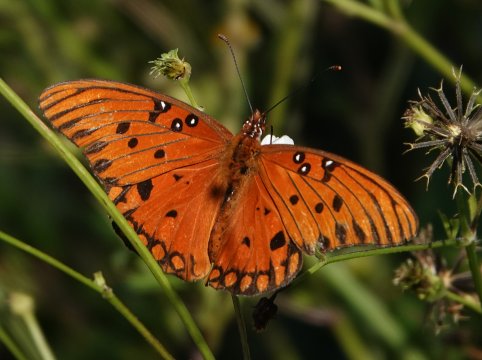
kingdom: Animalia
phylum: Arthropoda
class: Insecta
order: Lepidoptera
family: Nymphalidae
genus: Dione
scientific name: Dione vanillae
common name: Gulf Fritillary
